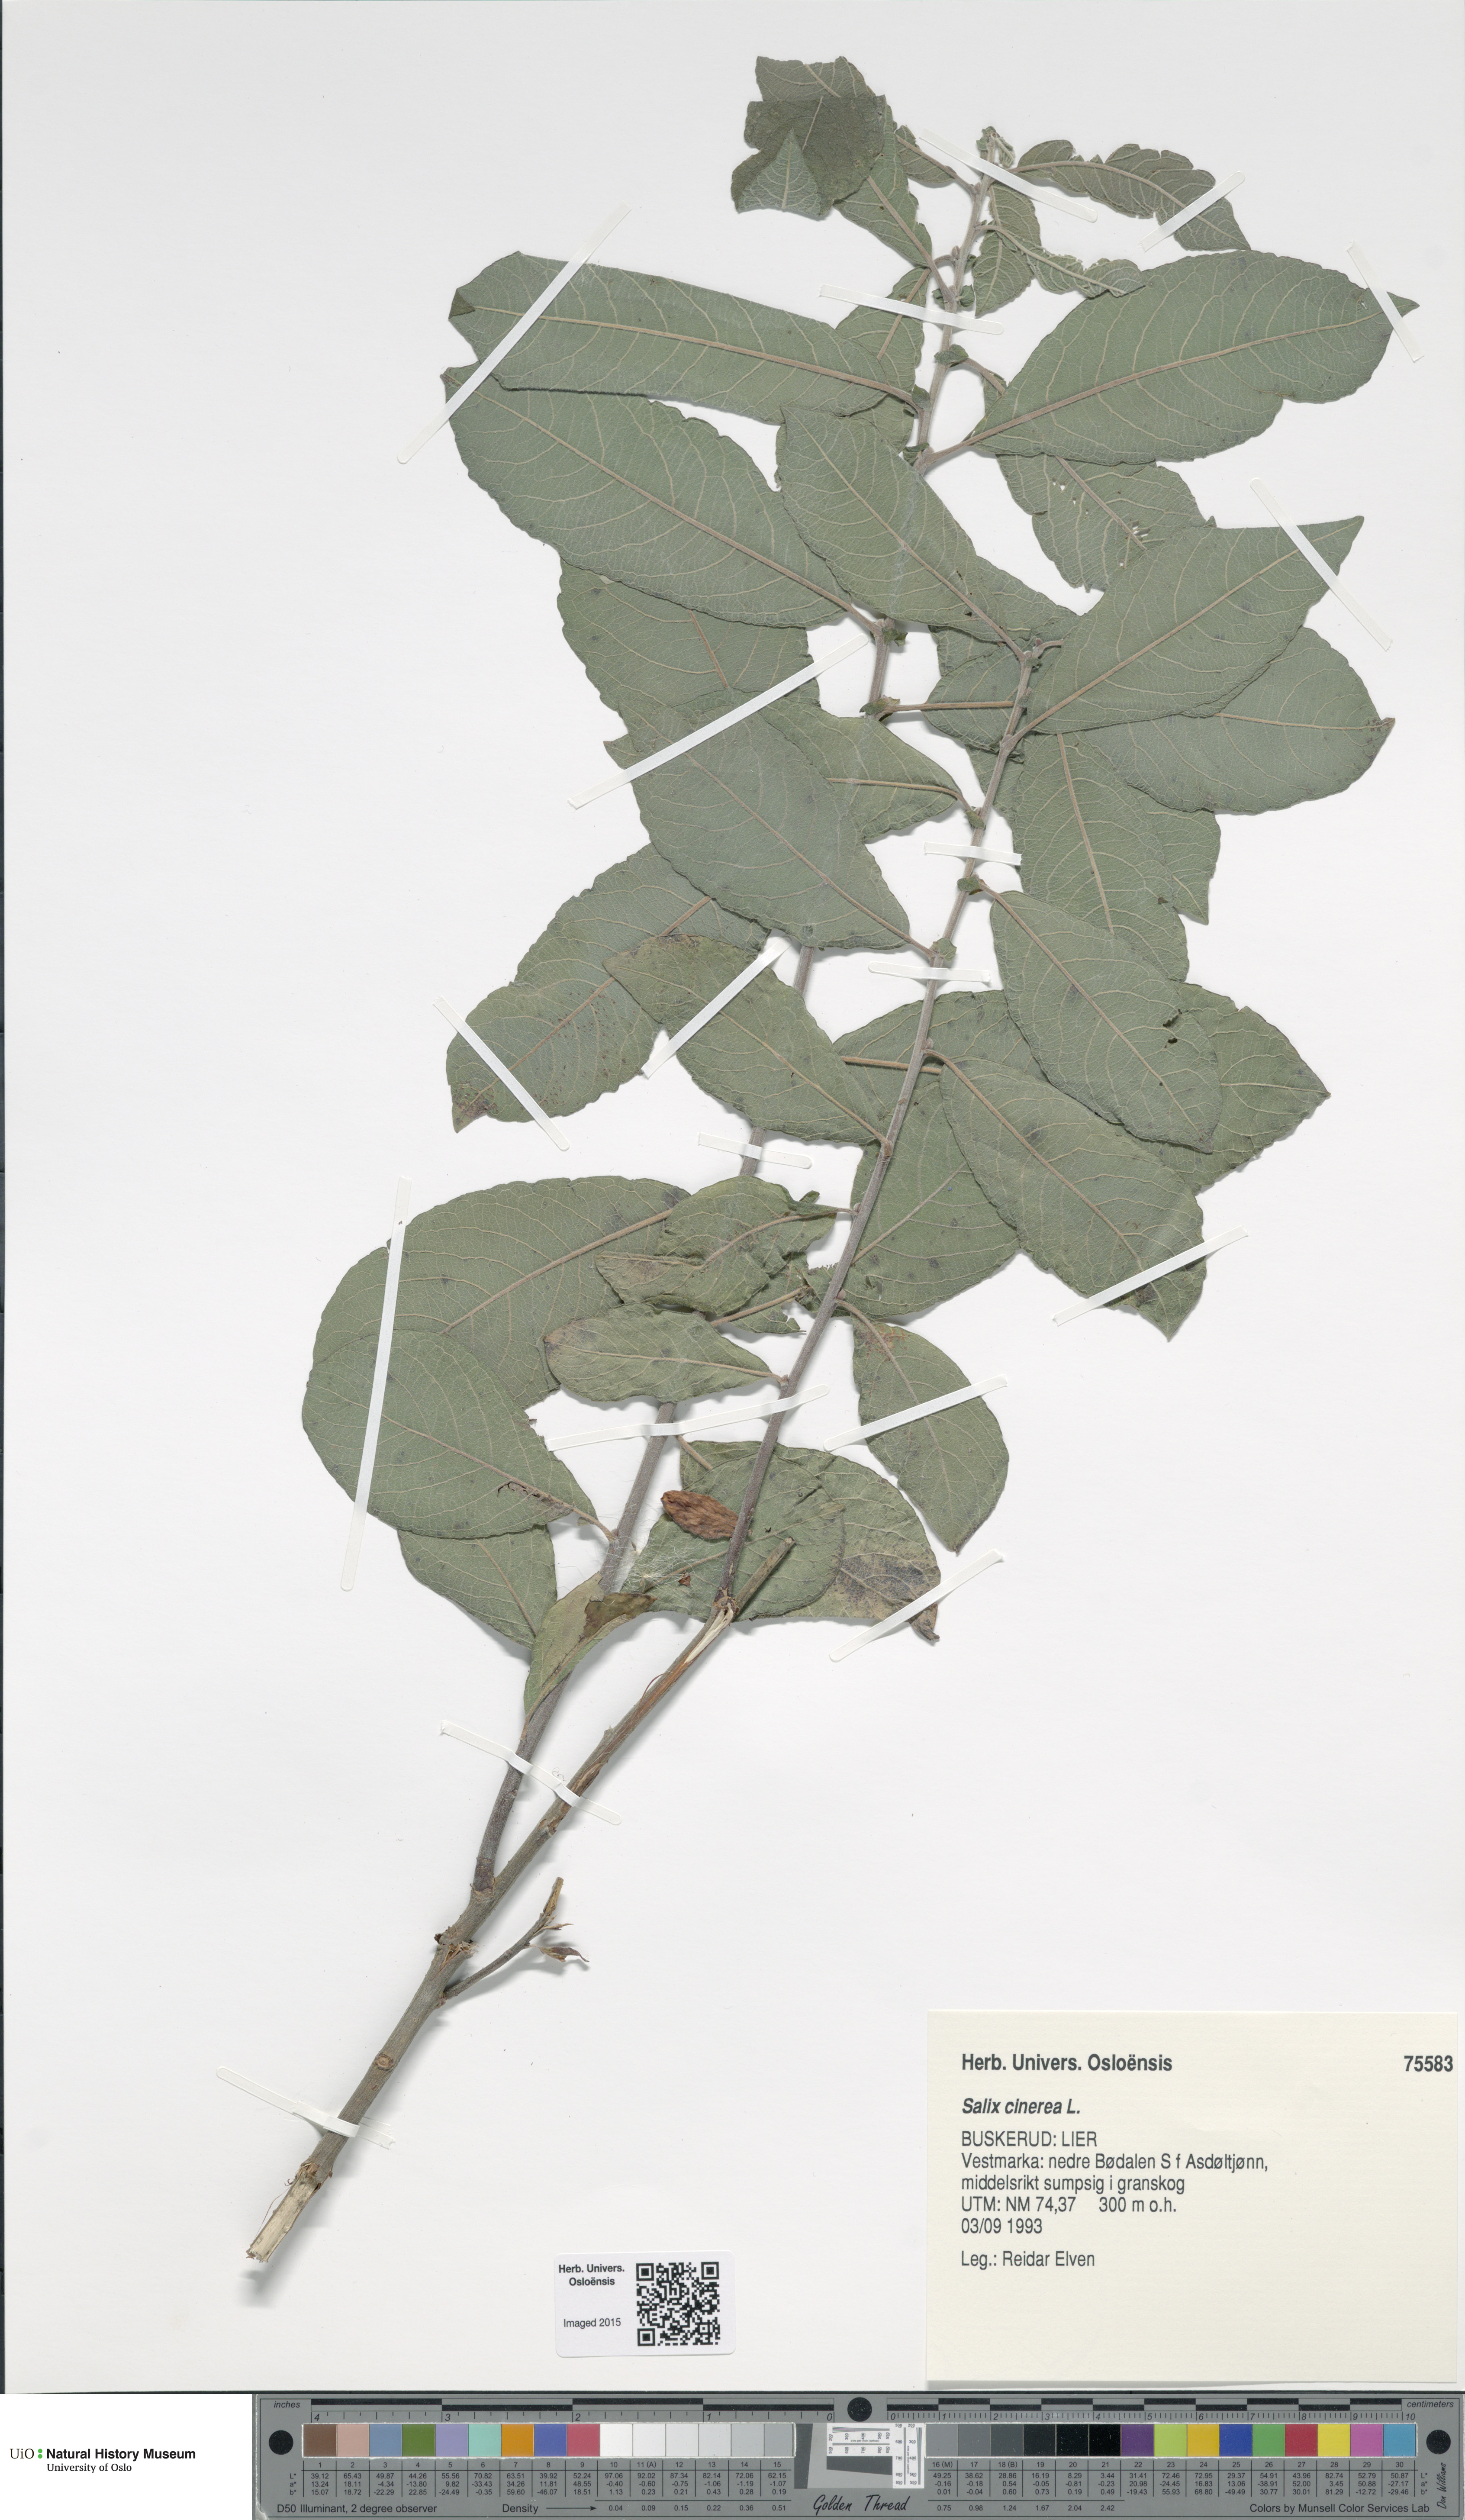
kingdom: Plantae
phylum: Tracheophyta
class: Magnoliopsida
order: Malpighiales
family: Salicaceae
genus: Salix
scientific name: Salix cinerea
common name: Common sallow
